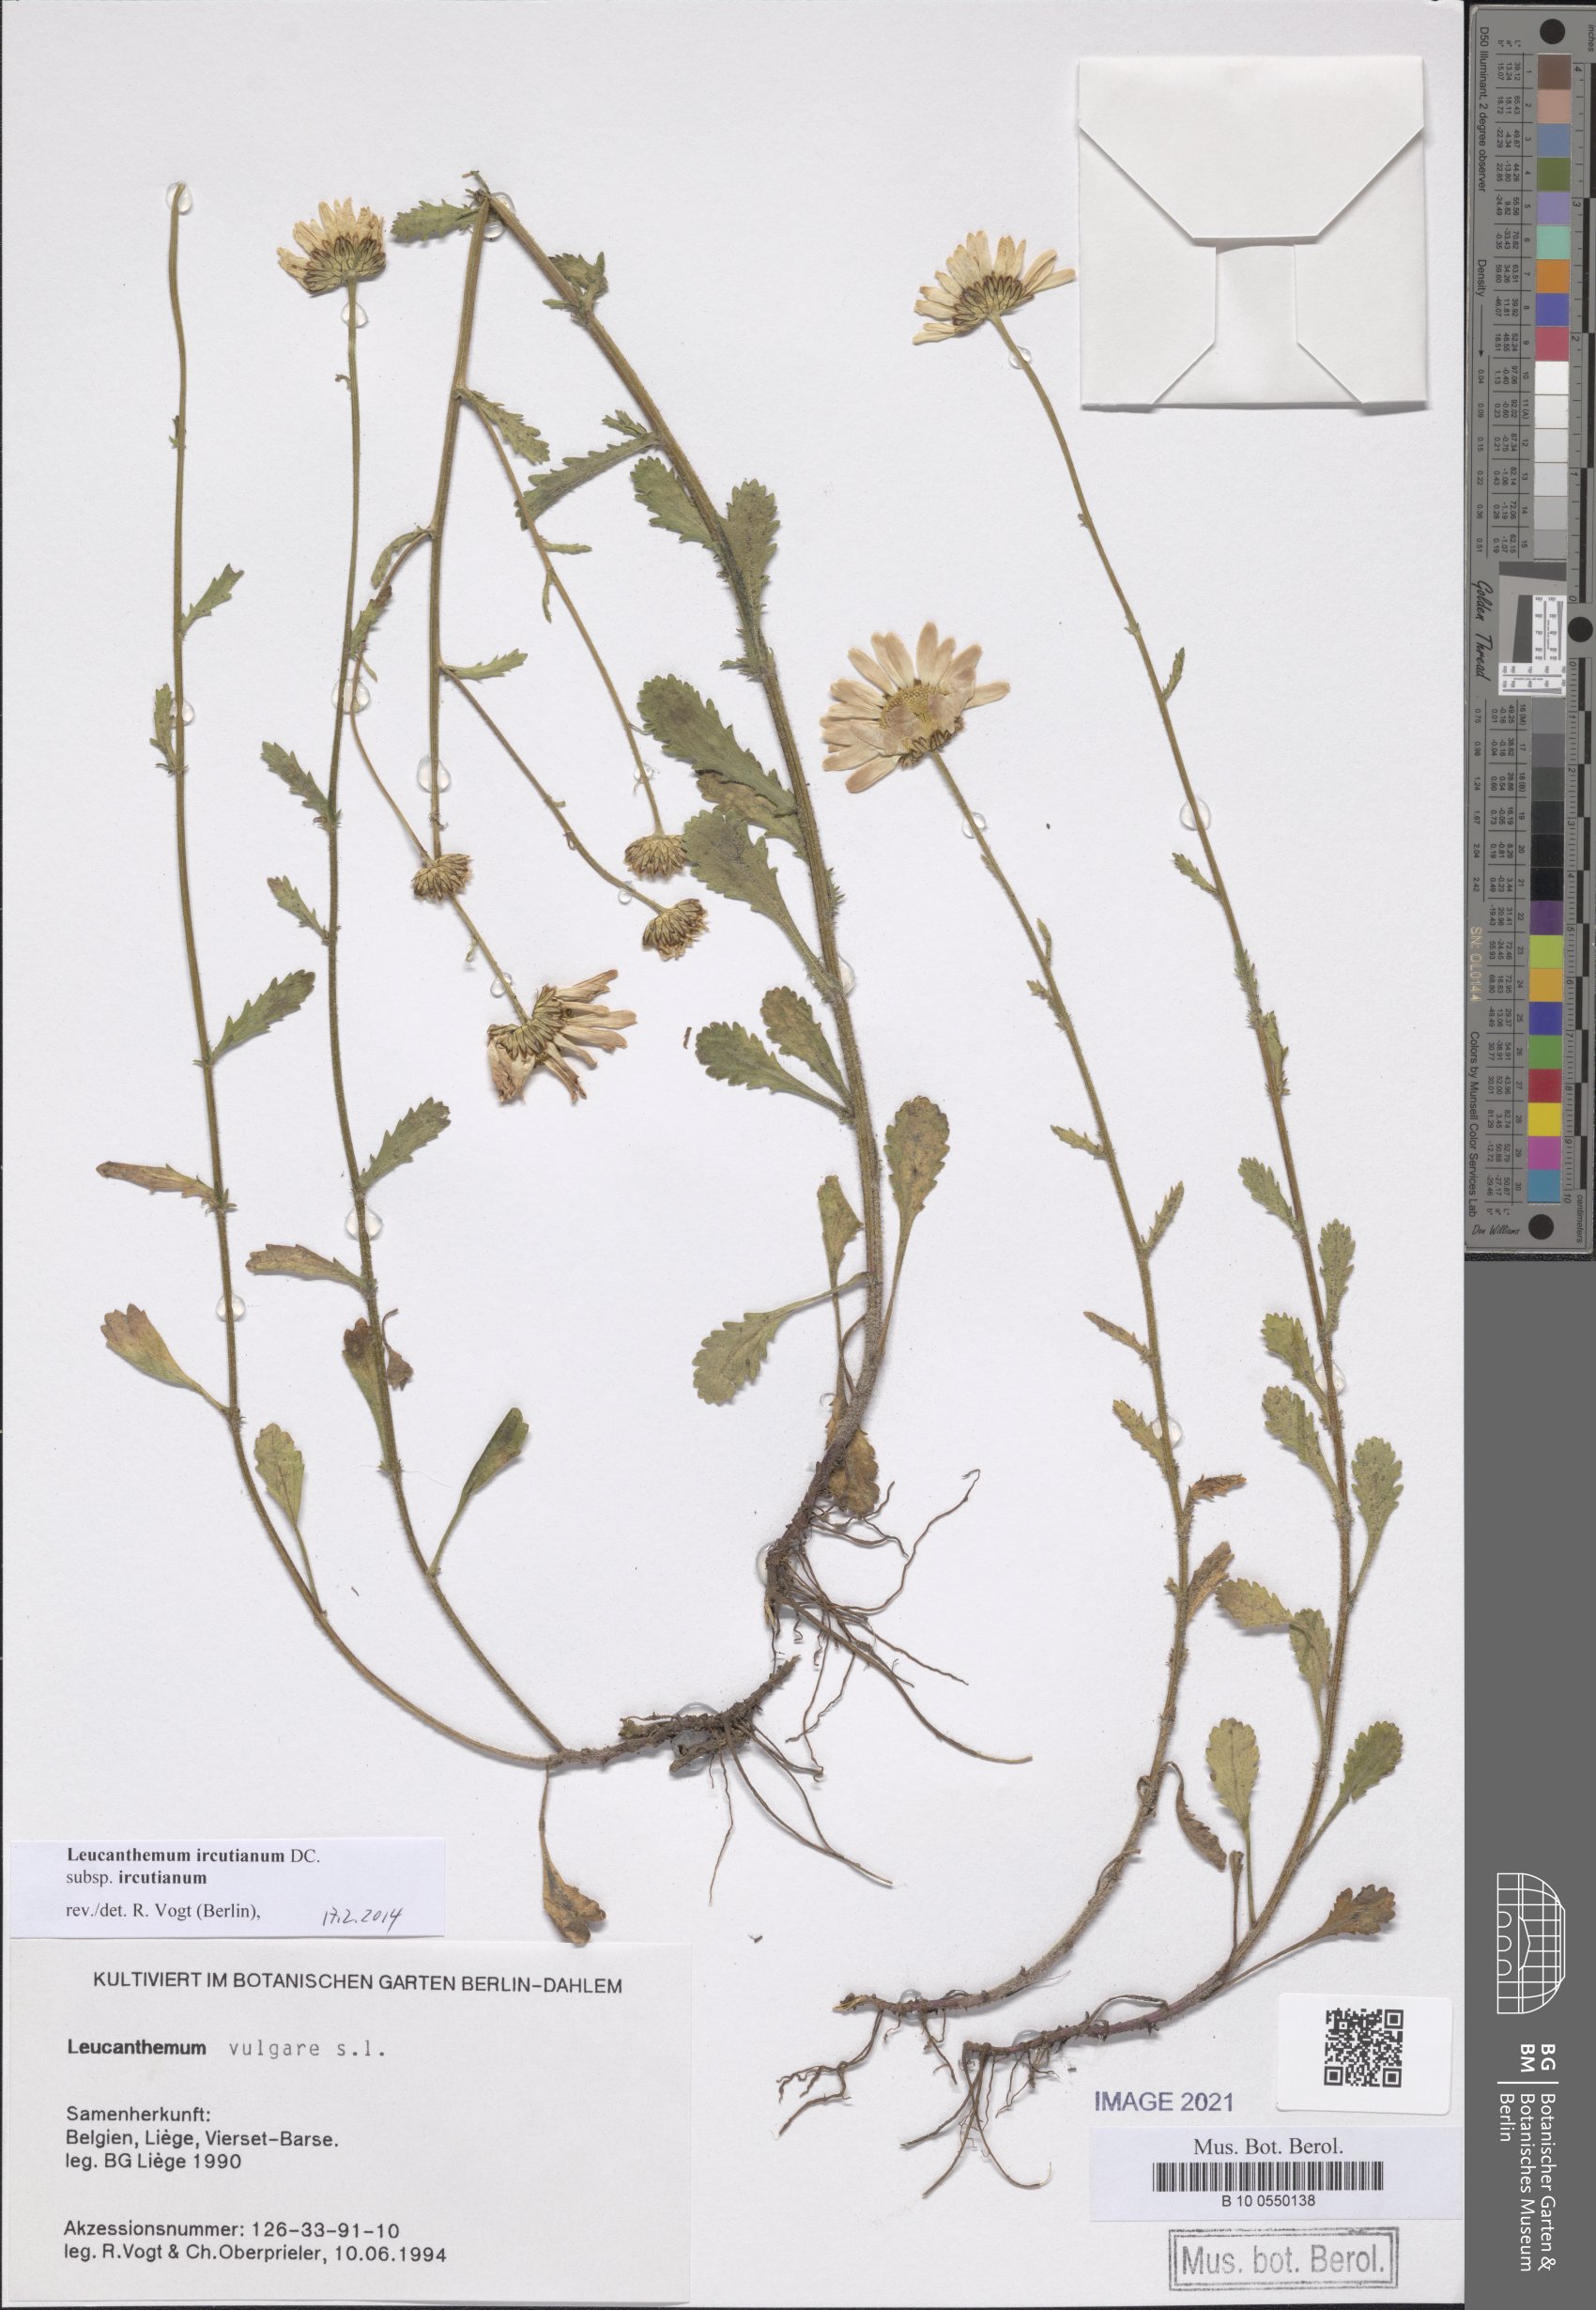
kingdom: Plantae
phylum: Tracheophyta
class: Magnoliopsida
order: Asterales
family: Asteraceae
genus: Leucanthemum
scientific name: Leucanthemum ircutianum
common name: Daisy
